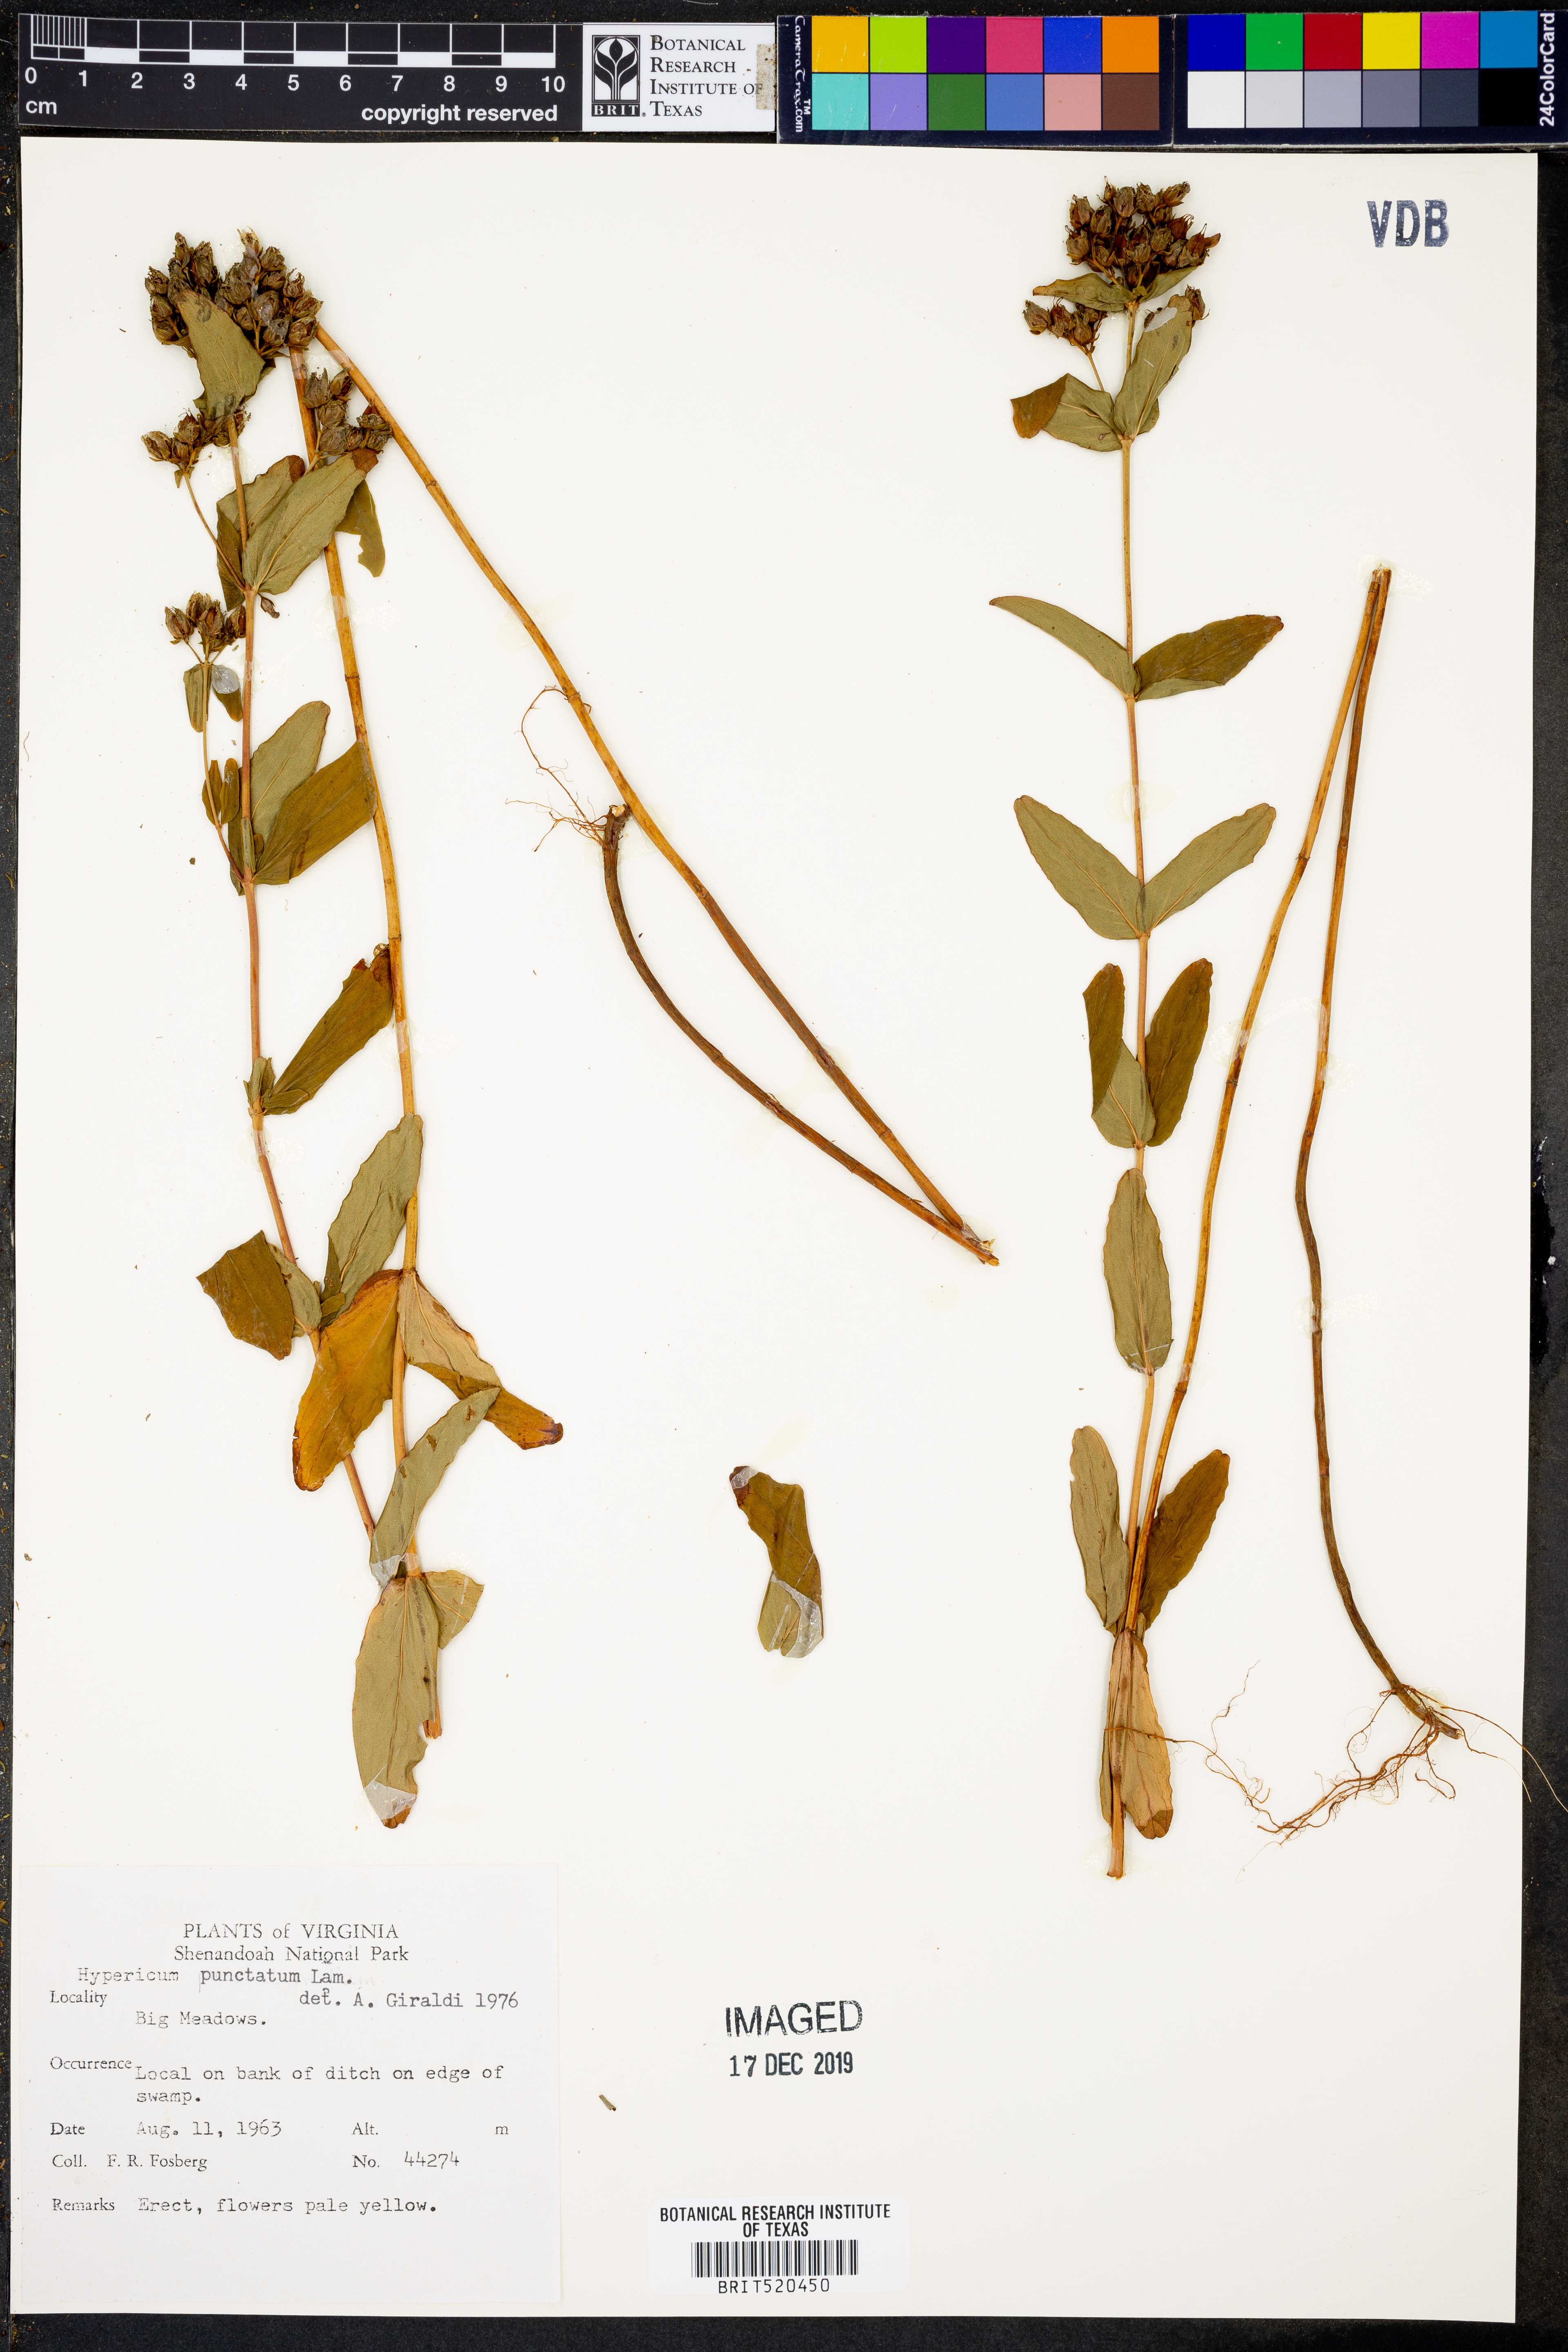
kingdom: Plantae
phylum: Tracheophyta
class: Magnoliopsida
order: Malpighiales
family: Hypericaceae
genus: Hypericum
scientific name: Hypericum punctatum
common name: Spotted st. john's-wort
